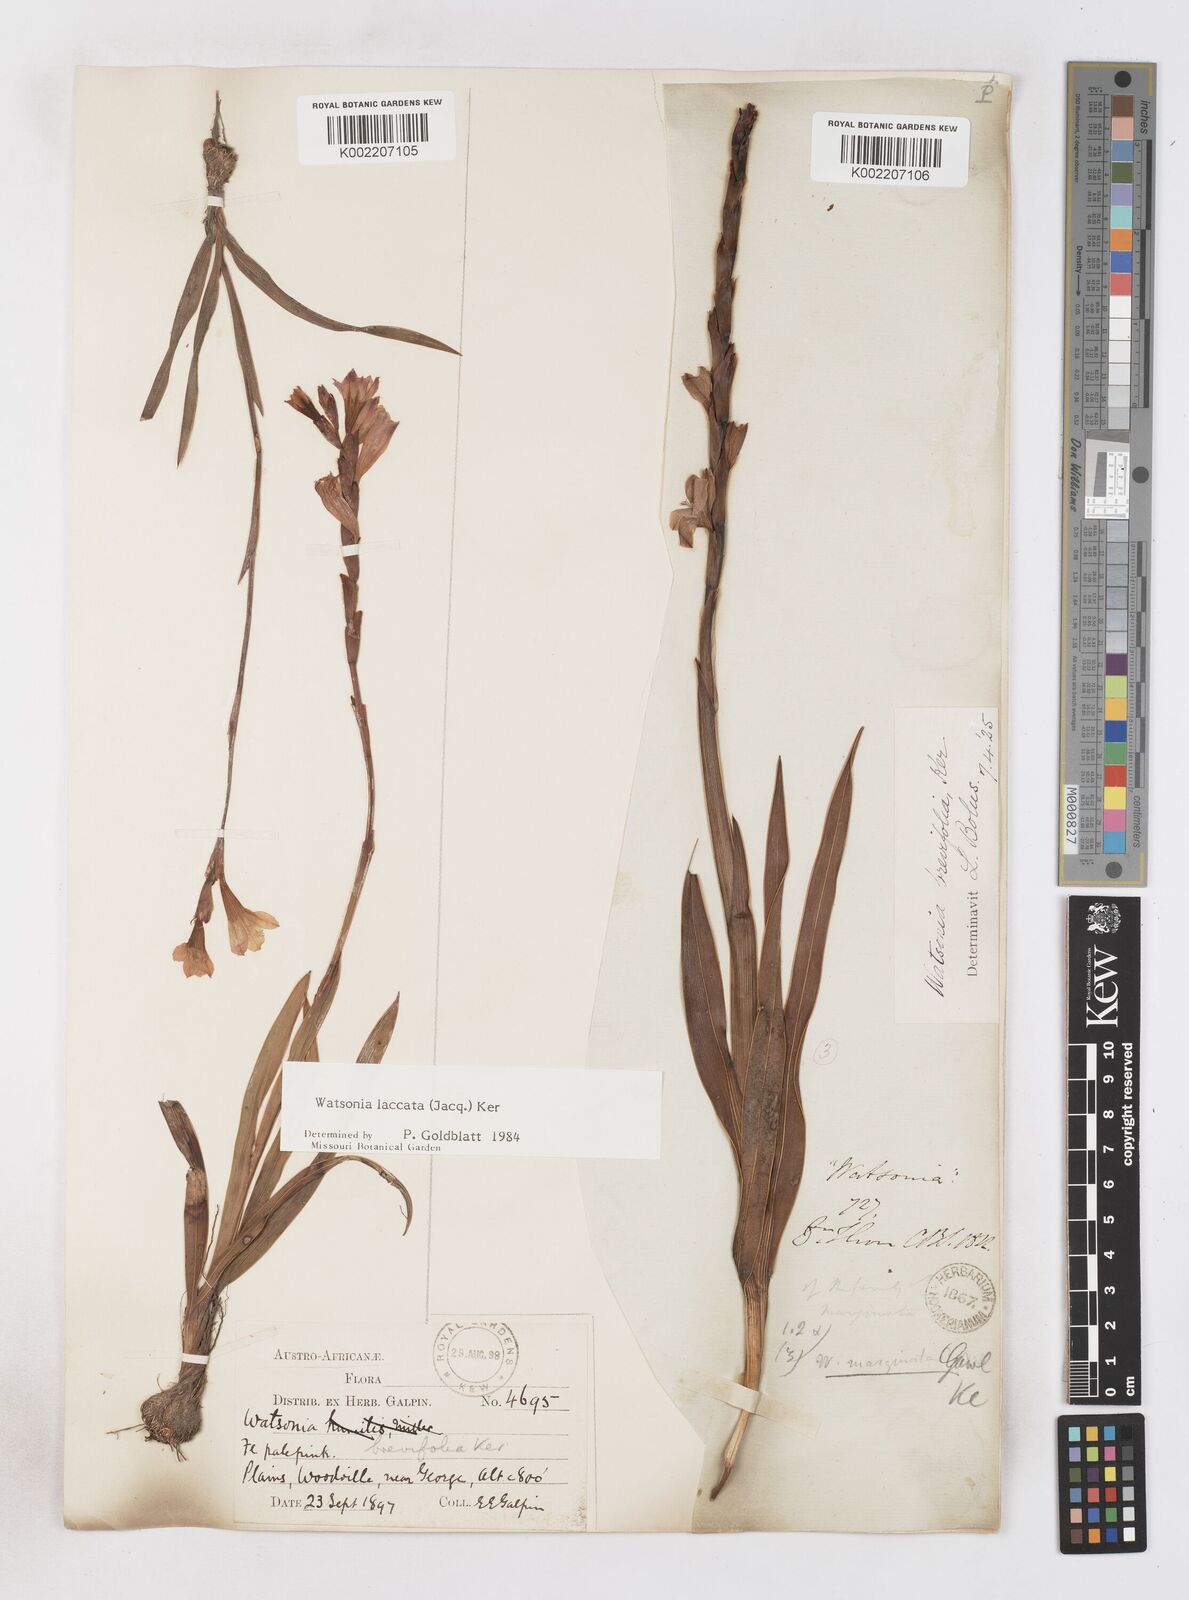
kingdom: Plantae
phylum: Tracheophyta
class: Liliopsida
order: Asparagales
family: Iridaceae
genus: Watsonia
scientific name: Watsonia laccata
